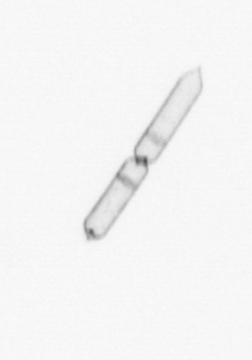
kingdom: Chromista
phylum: Ochrophyta
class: Bacillariophyceae
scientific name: Bacillariophyceae
